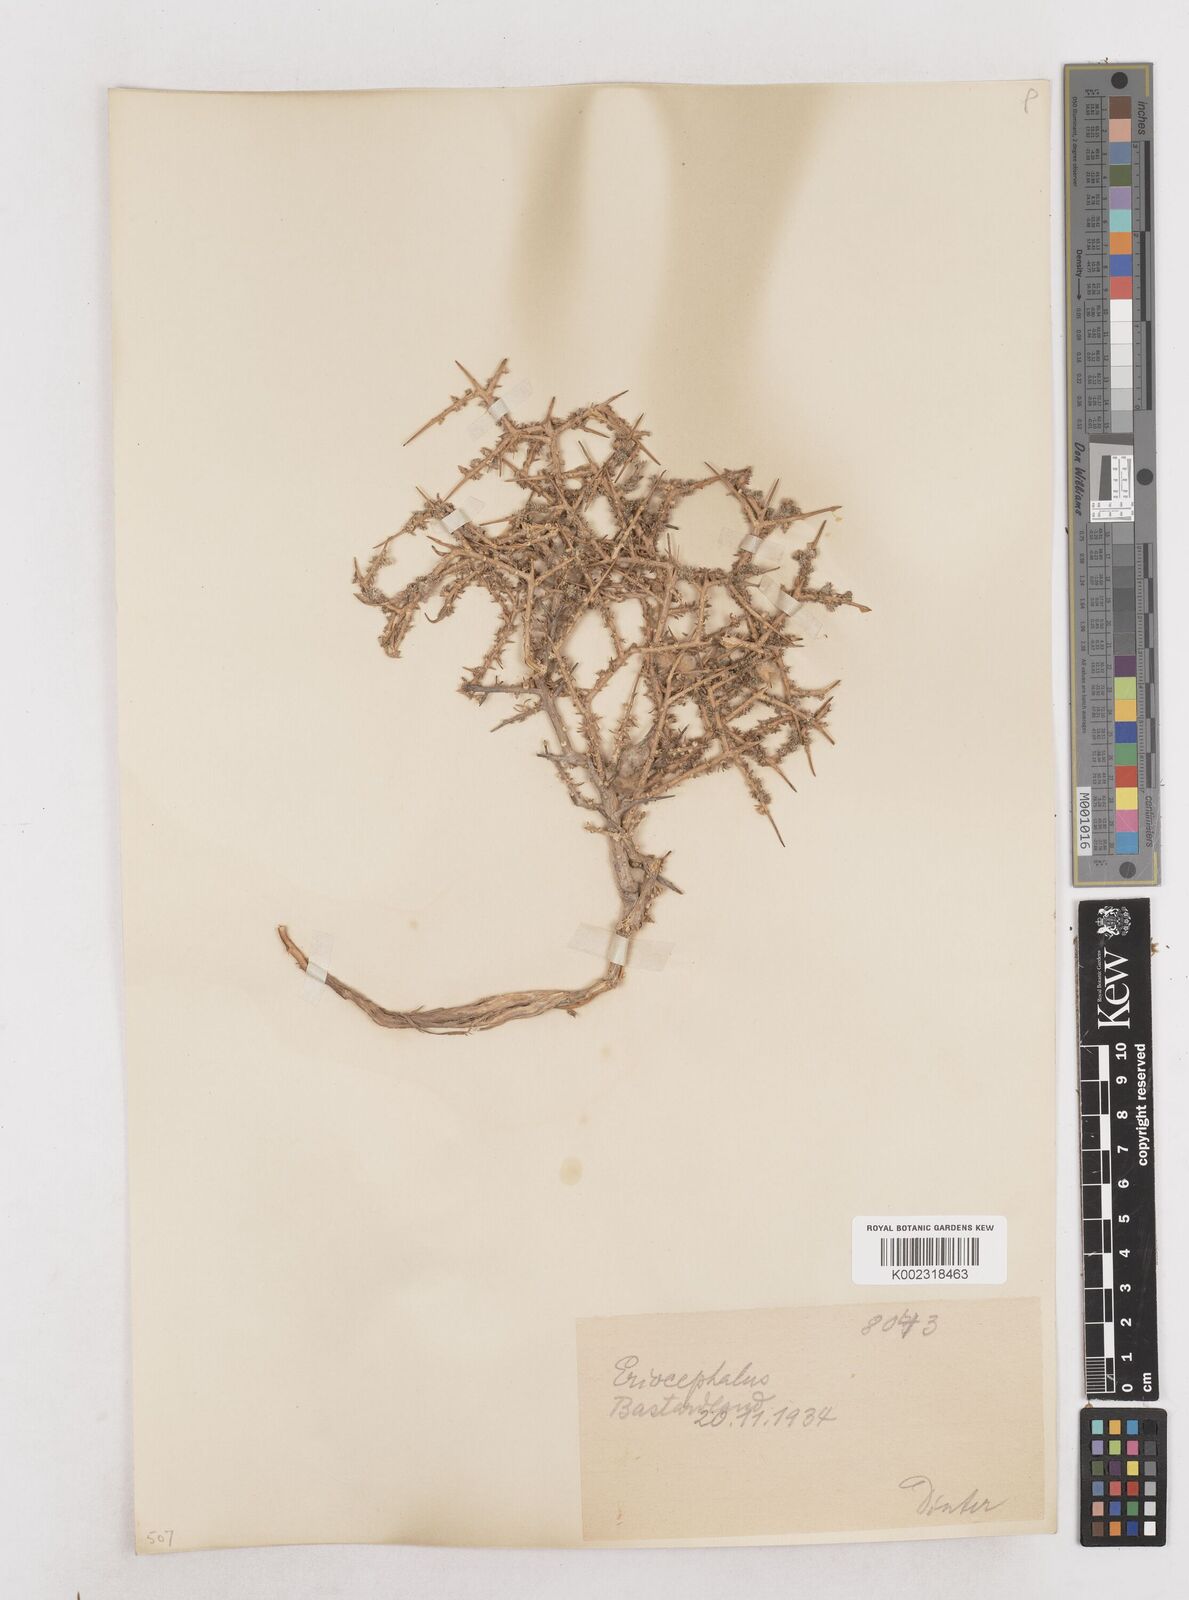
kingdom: Plantae
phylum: Tracheophyta
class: Magnoliopsida
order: Asterales
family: Asteraceae
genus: Eriocephalus
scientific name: Eriocephalus
